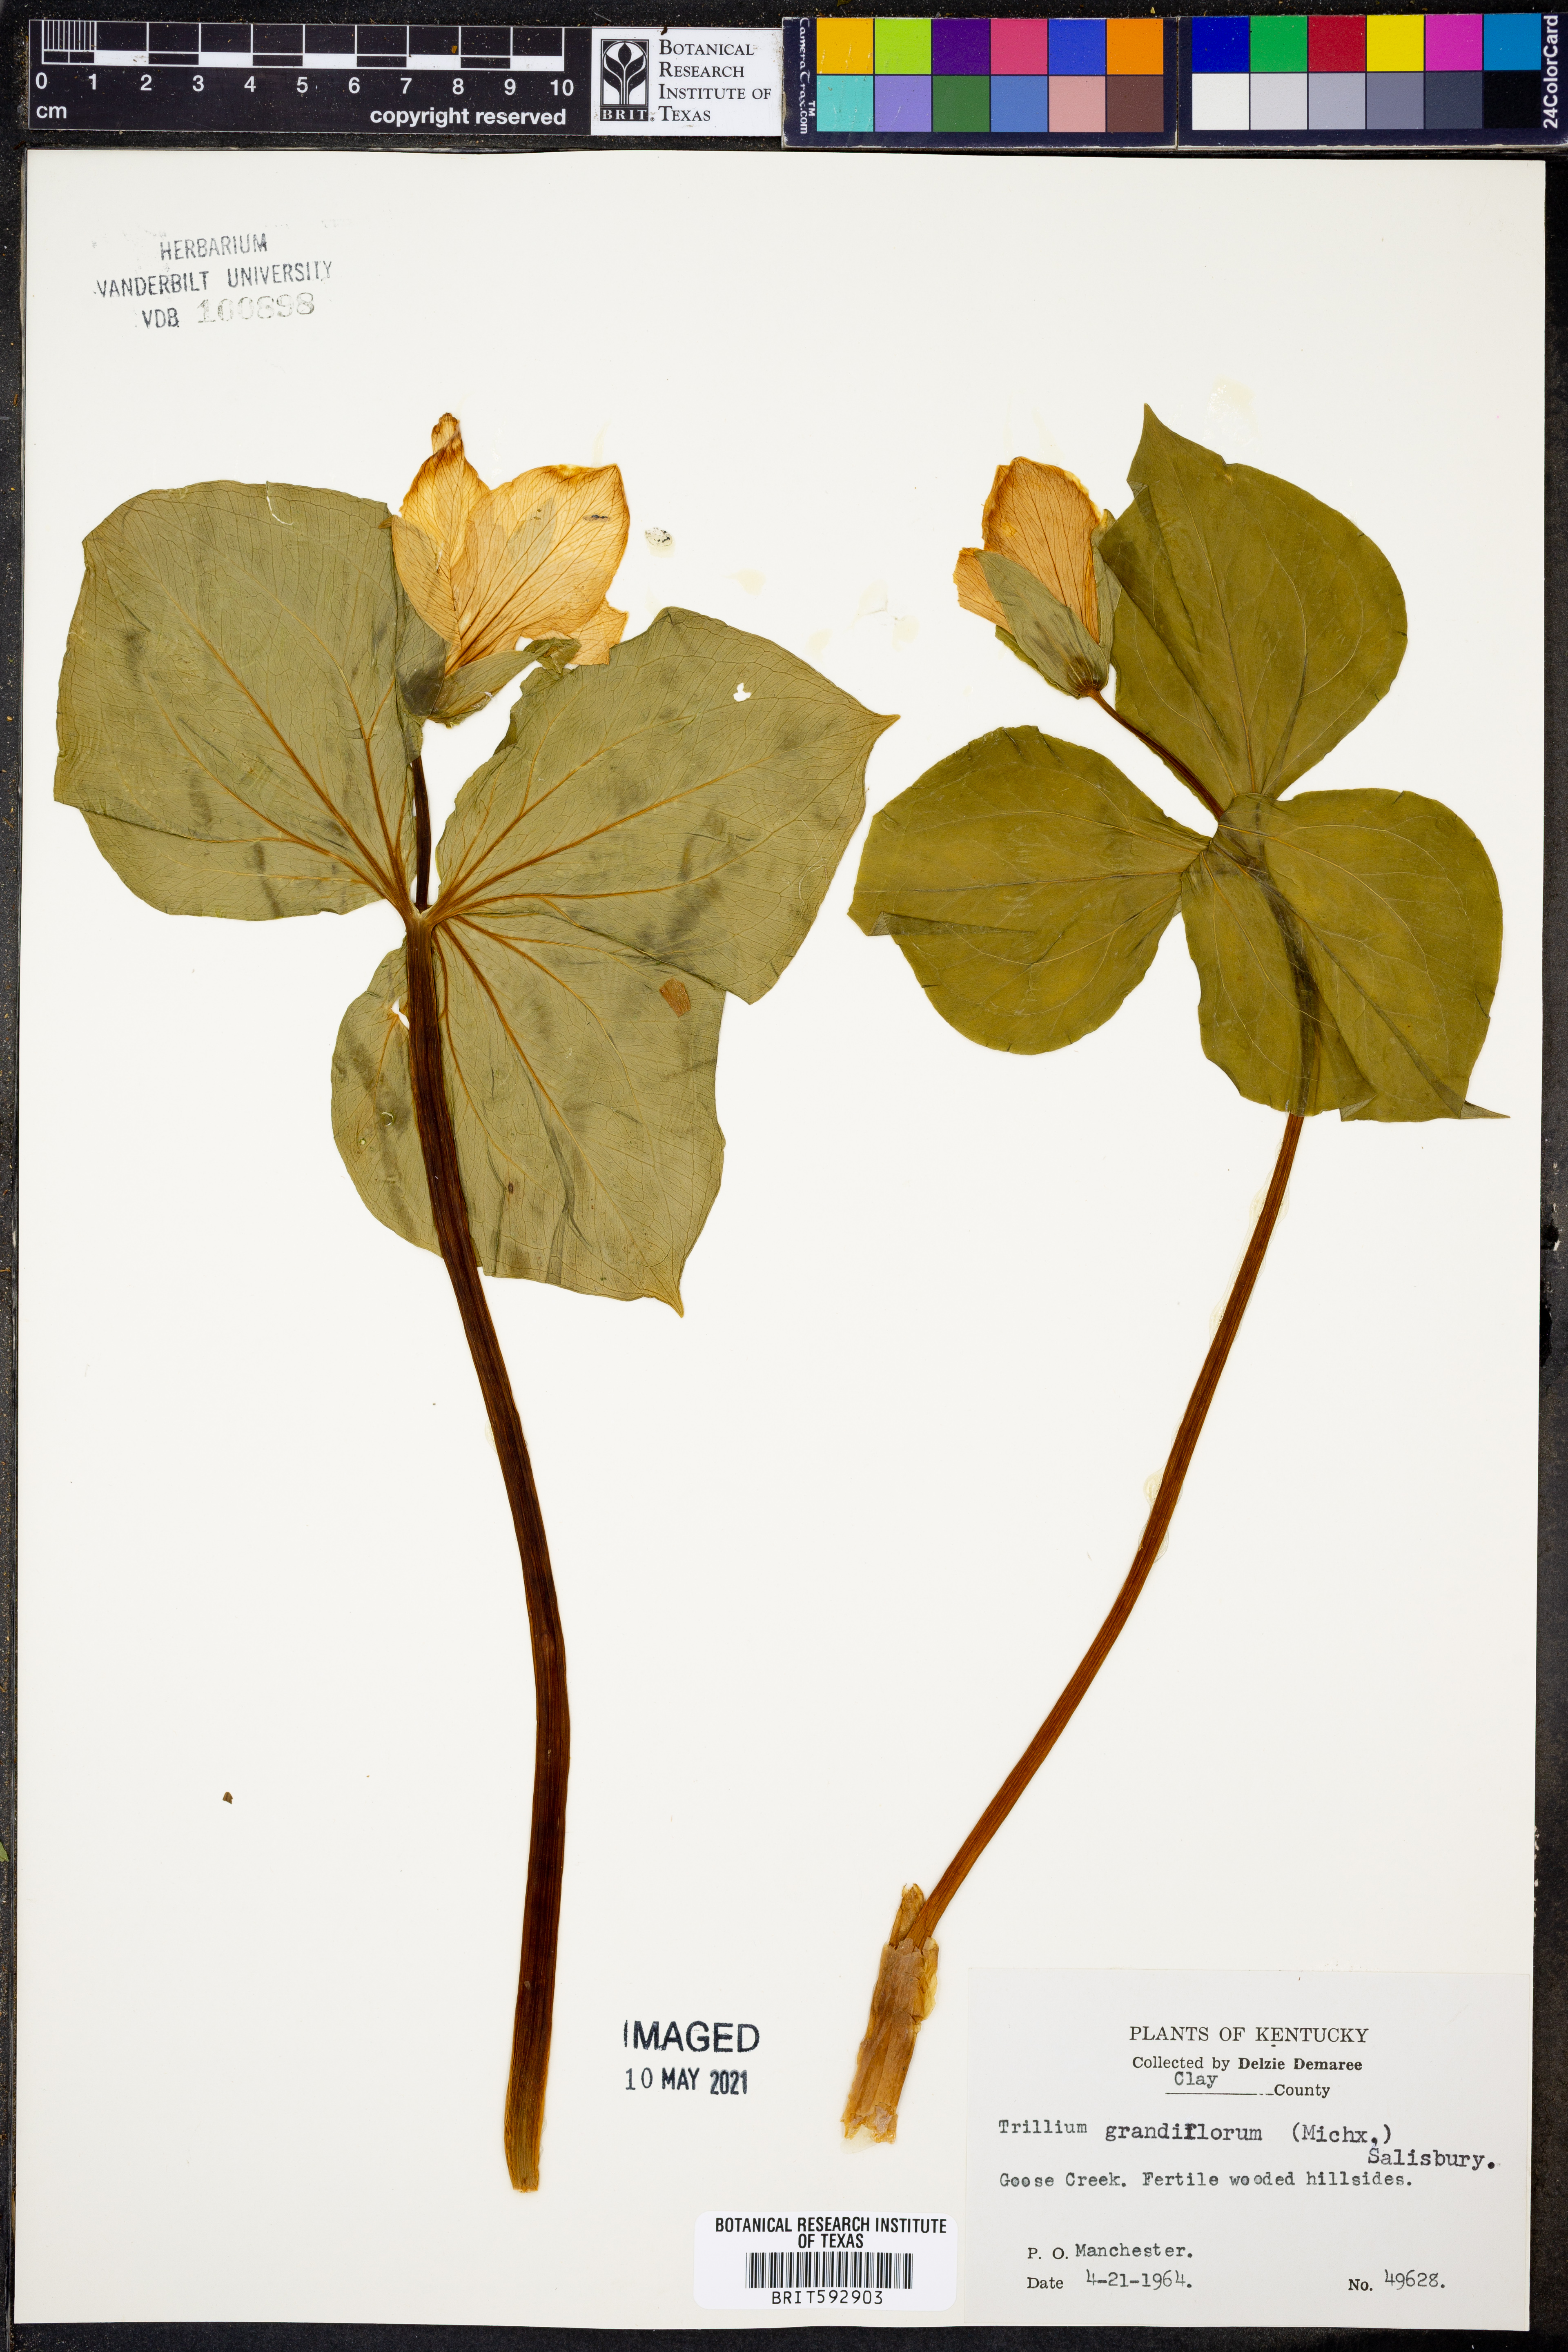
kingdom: Plantae
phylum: Tracheophyta
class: Liliopsida
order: Liliales
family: Melanthiaceae
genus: Trillium
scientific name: Trillium grandiflorum
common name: Great white trillium
